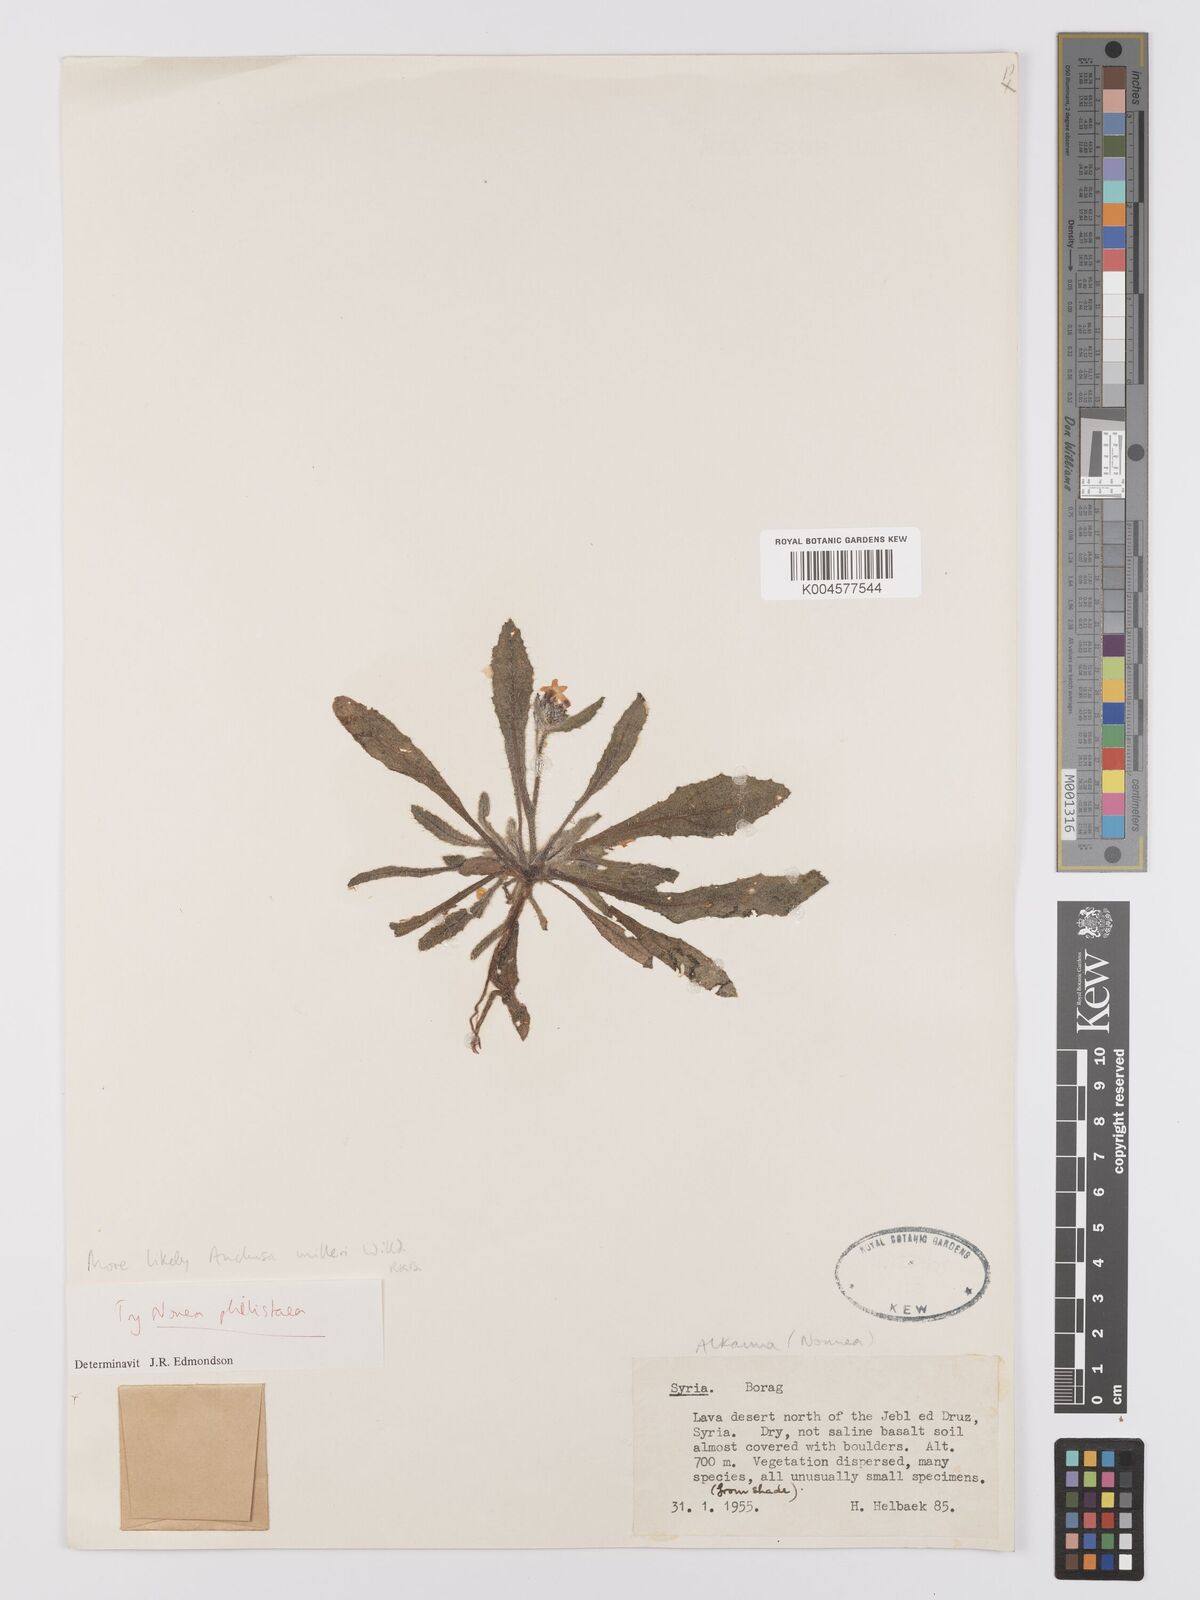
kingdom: Plantae
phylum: Tracheophyta
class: Magnoliopsida
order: Boraginales
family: Boraginaceae
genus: Anchusa
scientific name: Anchusa
